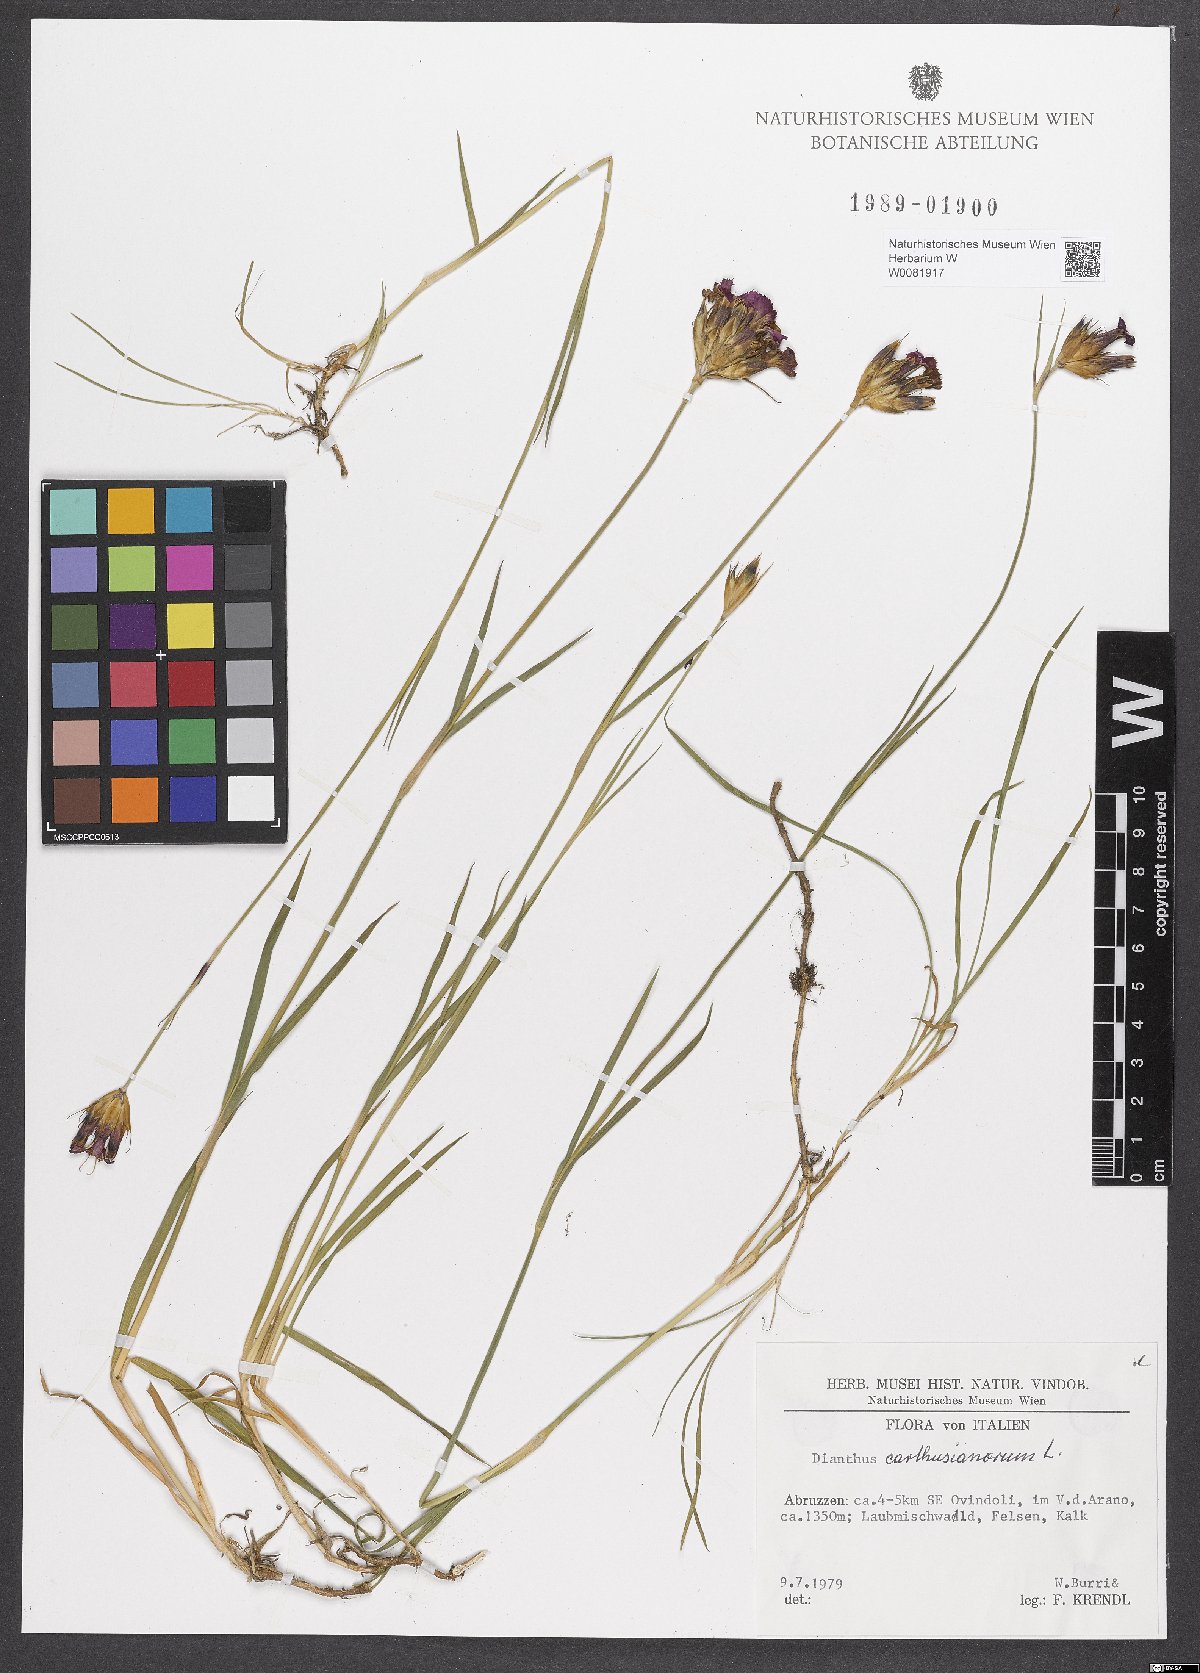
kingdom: Plantae
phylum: Tracheophyta
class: Magnoliopsida
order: Caryophyllales
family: Caryophyllaceae
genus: Dianthus
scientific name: Dianthus carthusianorum
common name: Carthusian pink
